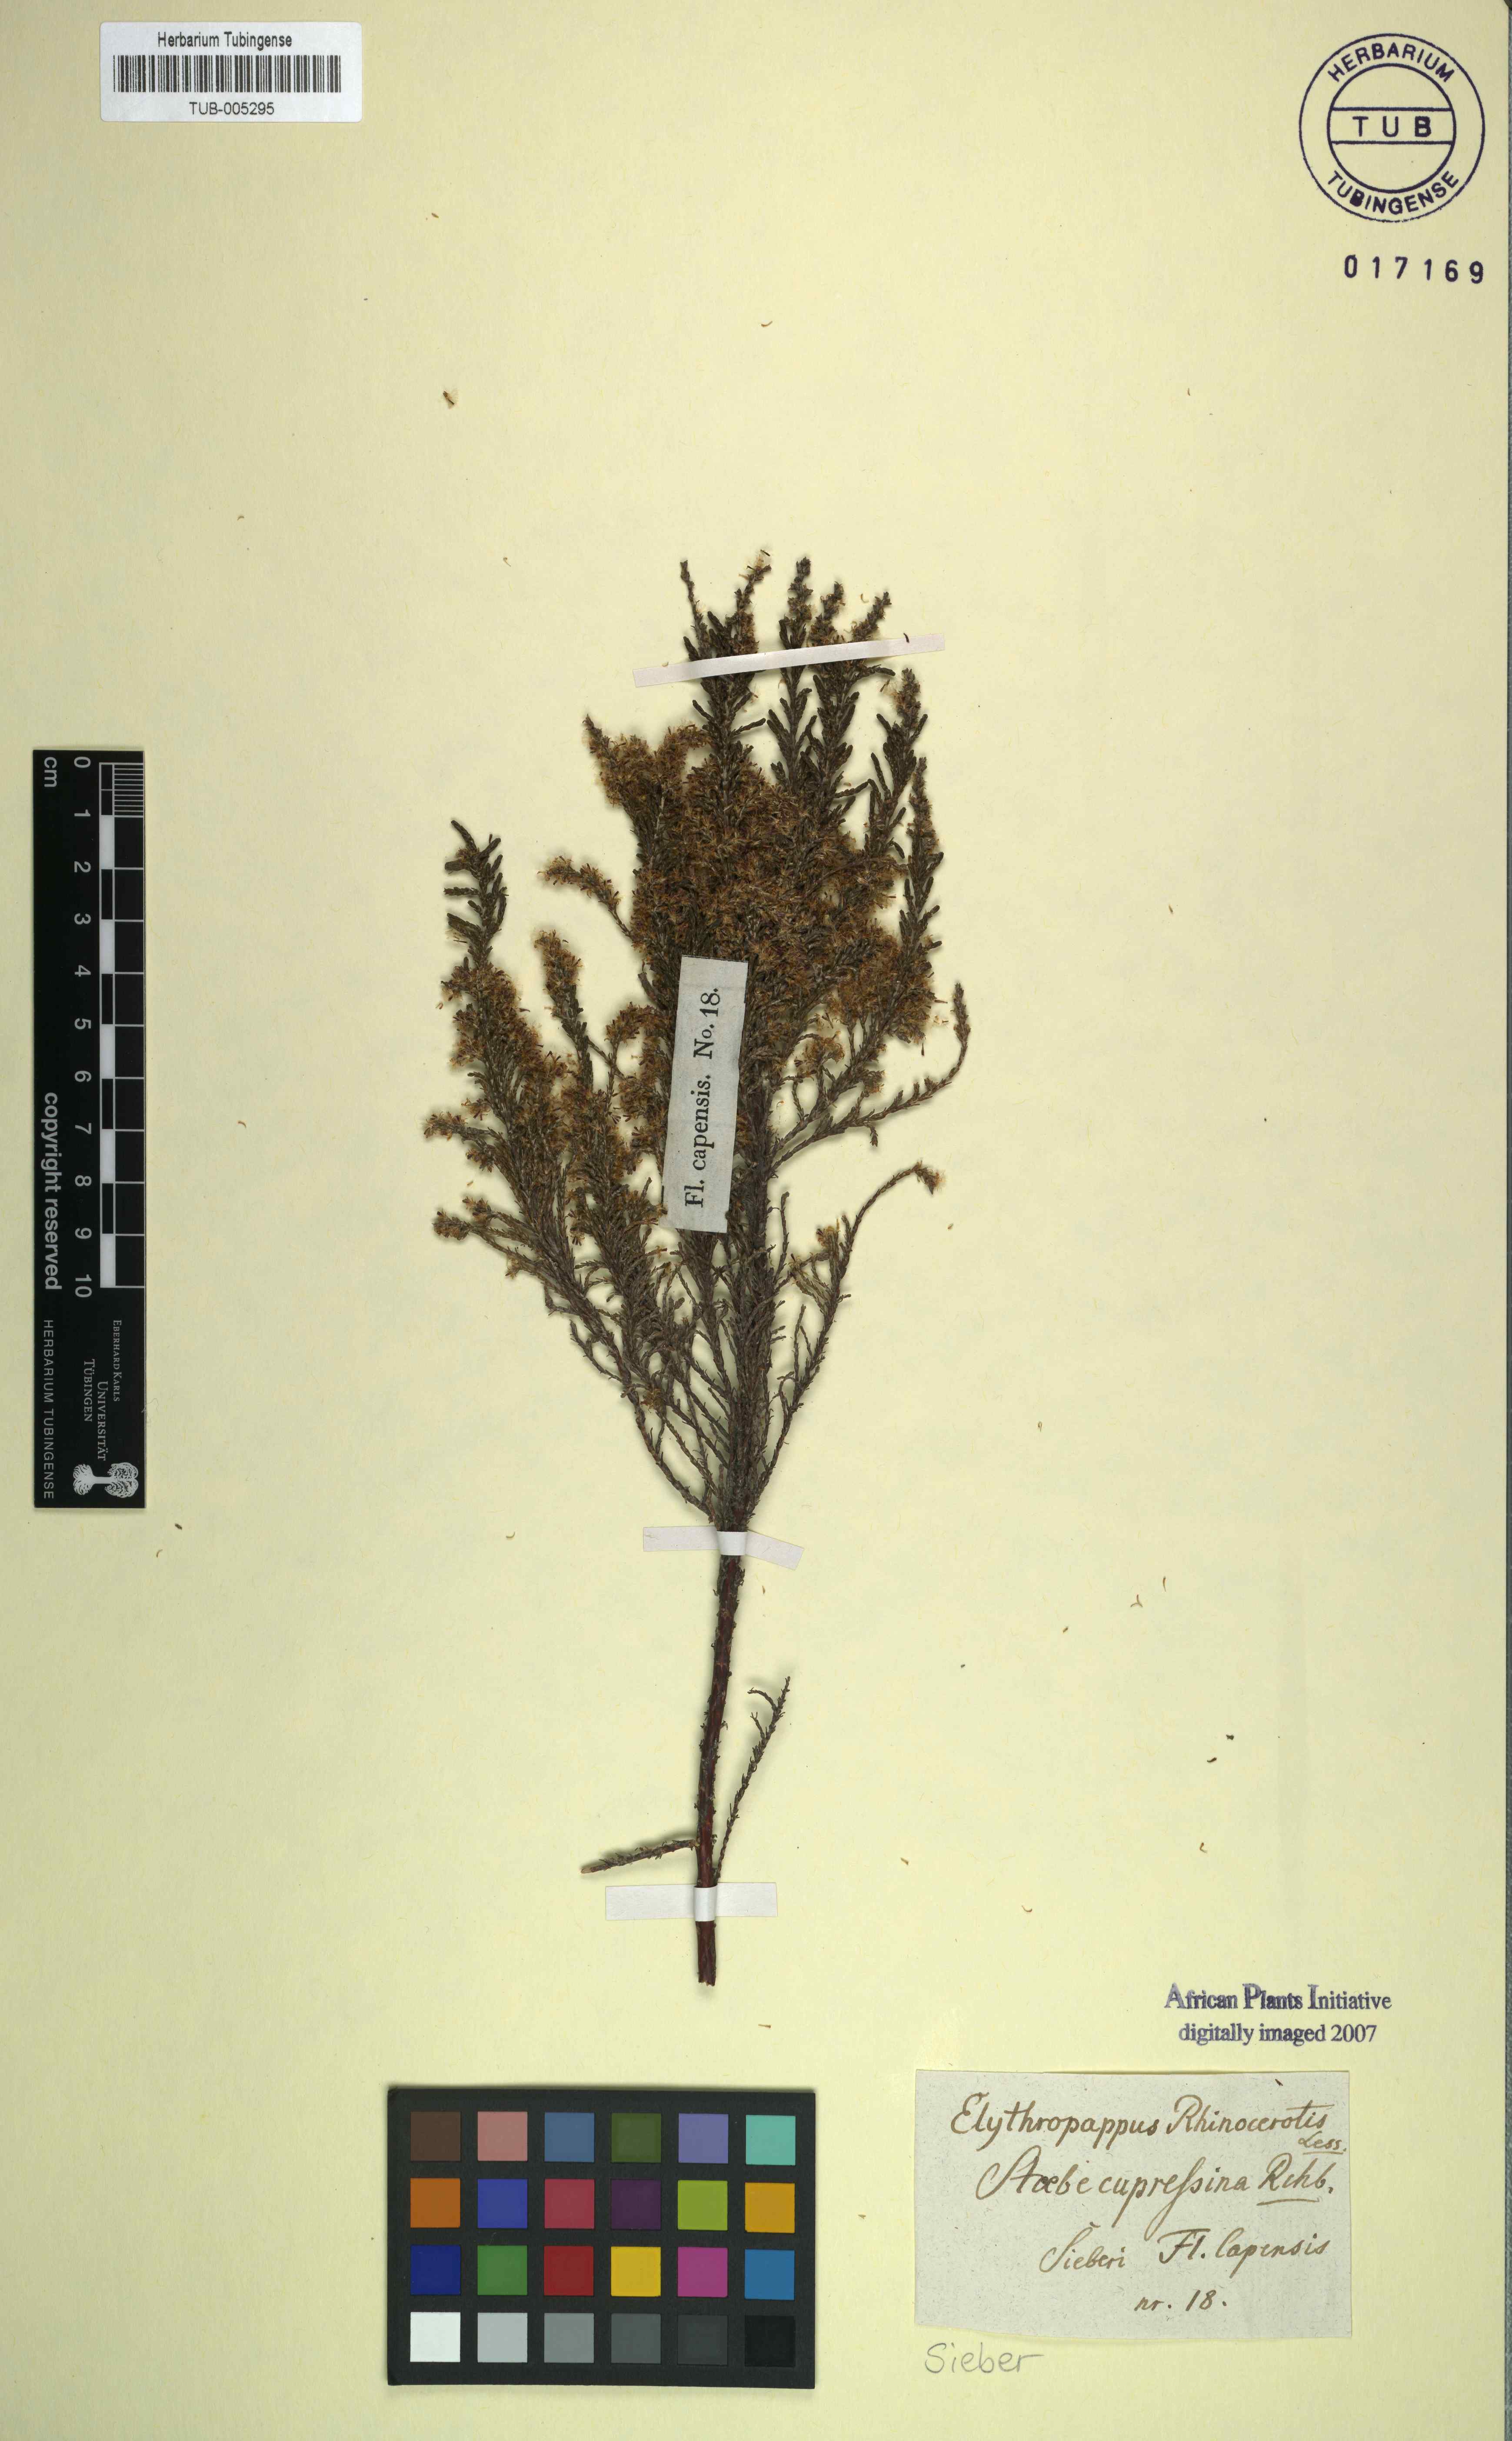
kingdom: Plantae
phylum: Tracheophyta
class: Magnoliopsida
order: Asterales
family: Asteraceae
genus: Dicerothamnus
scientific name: Dicerothamnus rhinocerotis
